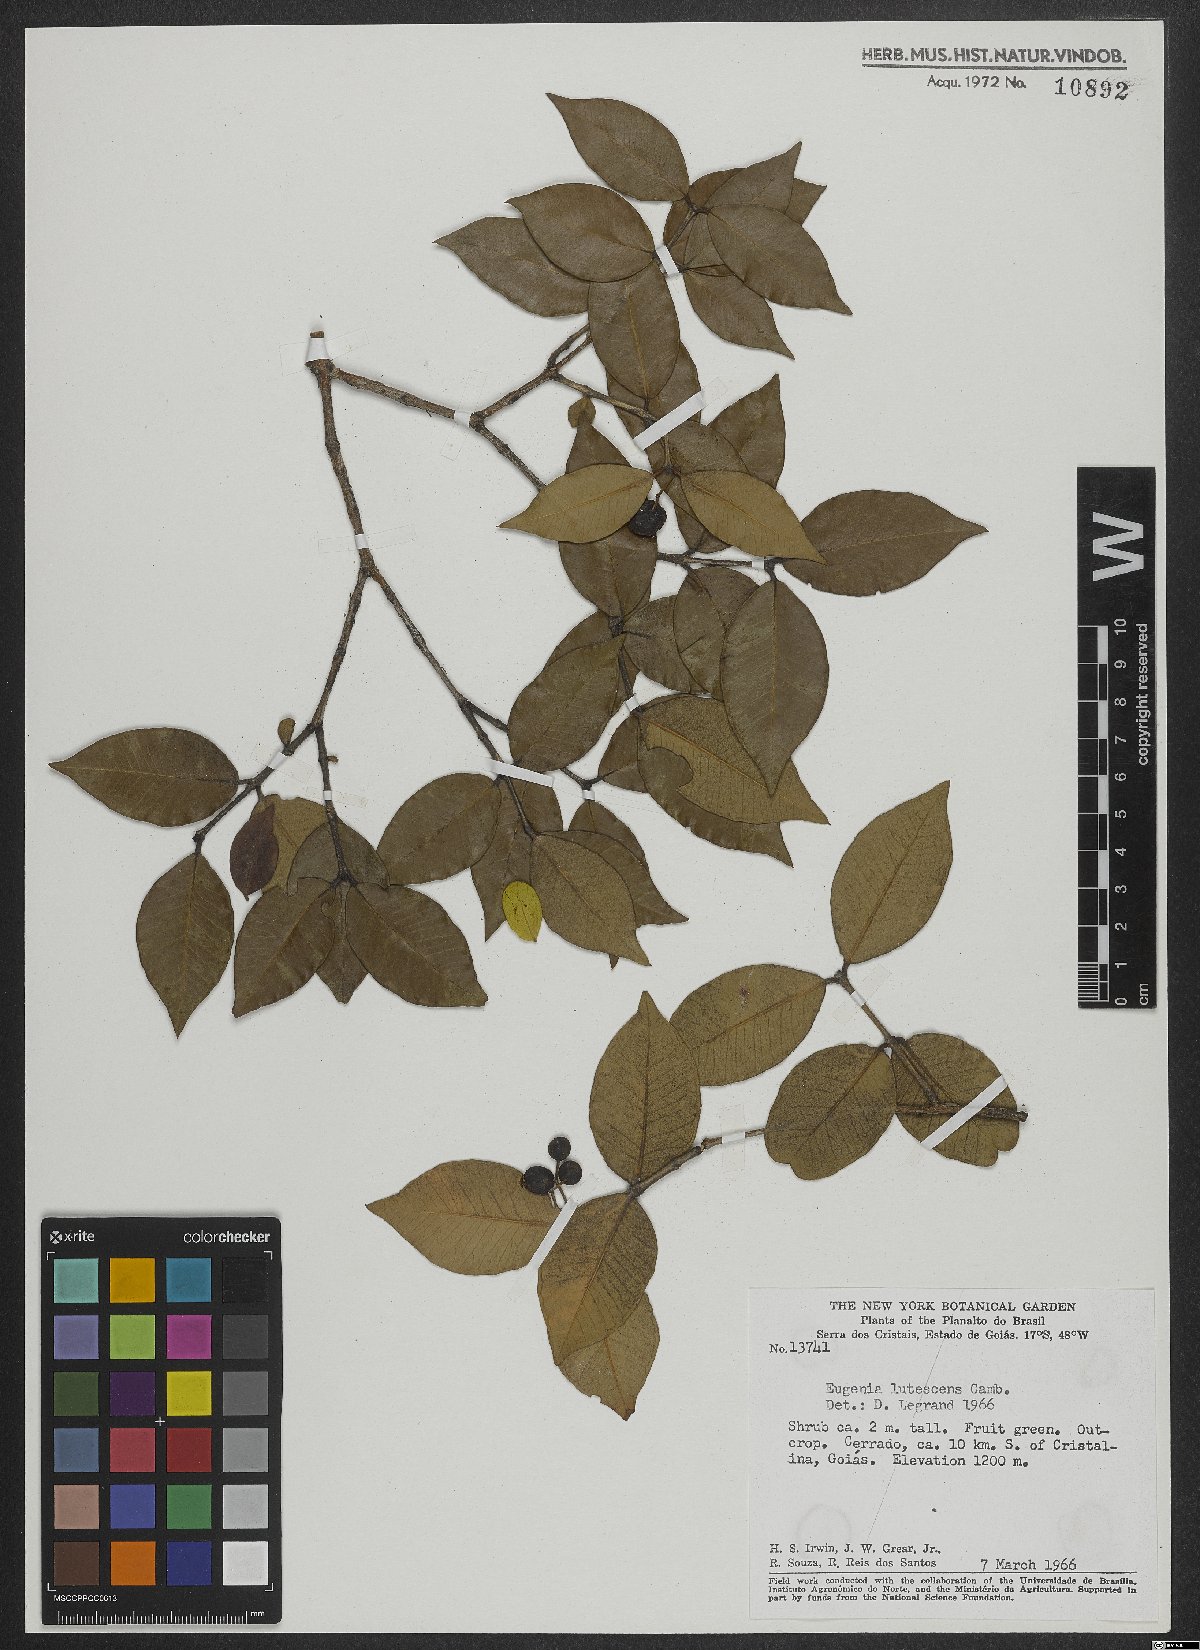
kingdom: Plantae
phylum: Tracheophyta
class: Magnoliopsida
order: Myrtales
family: Myrtaceae
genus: Eugenia
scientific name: Eugenia lutescens
